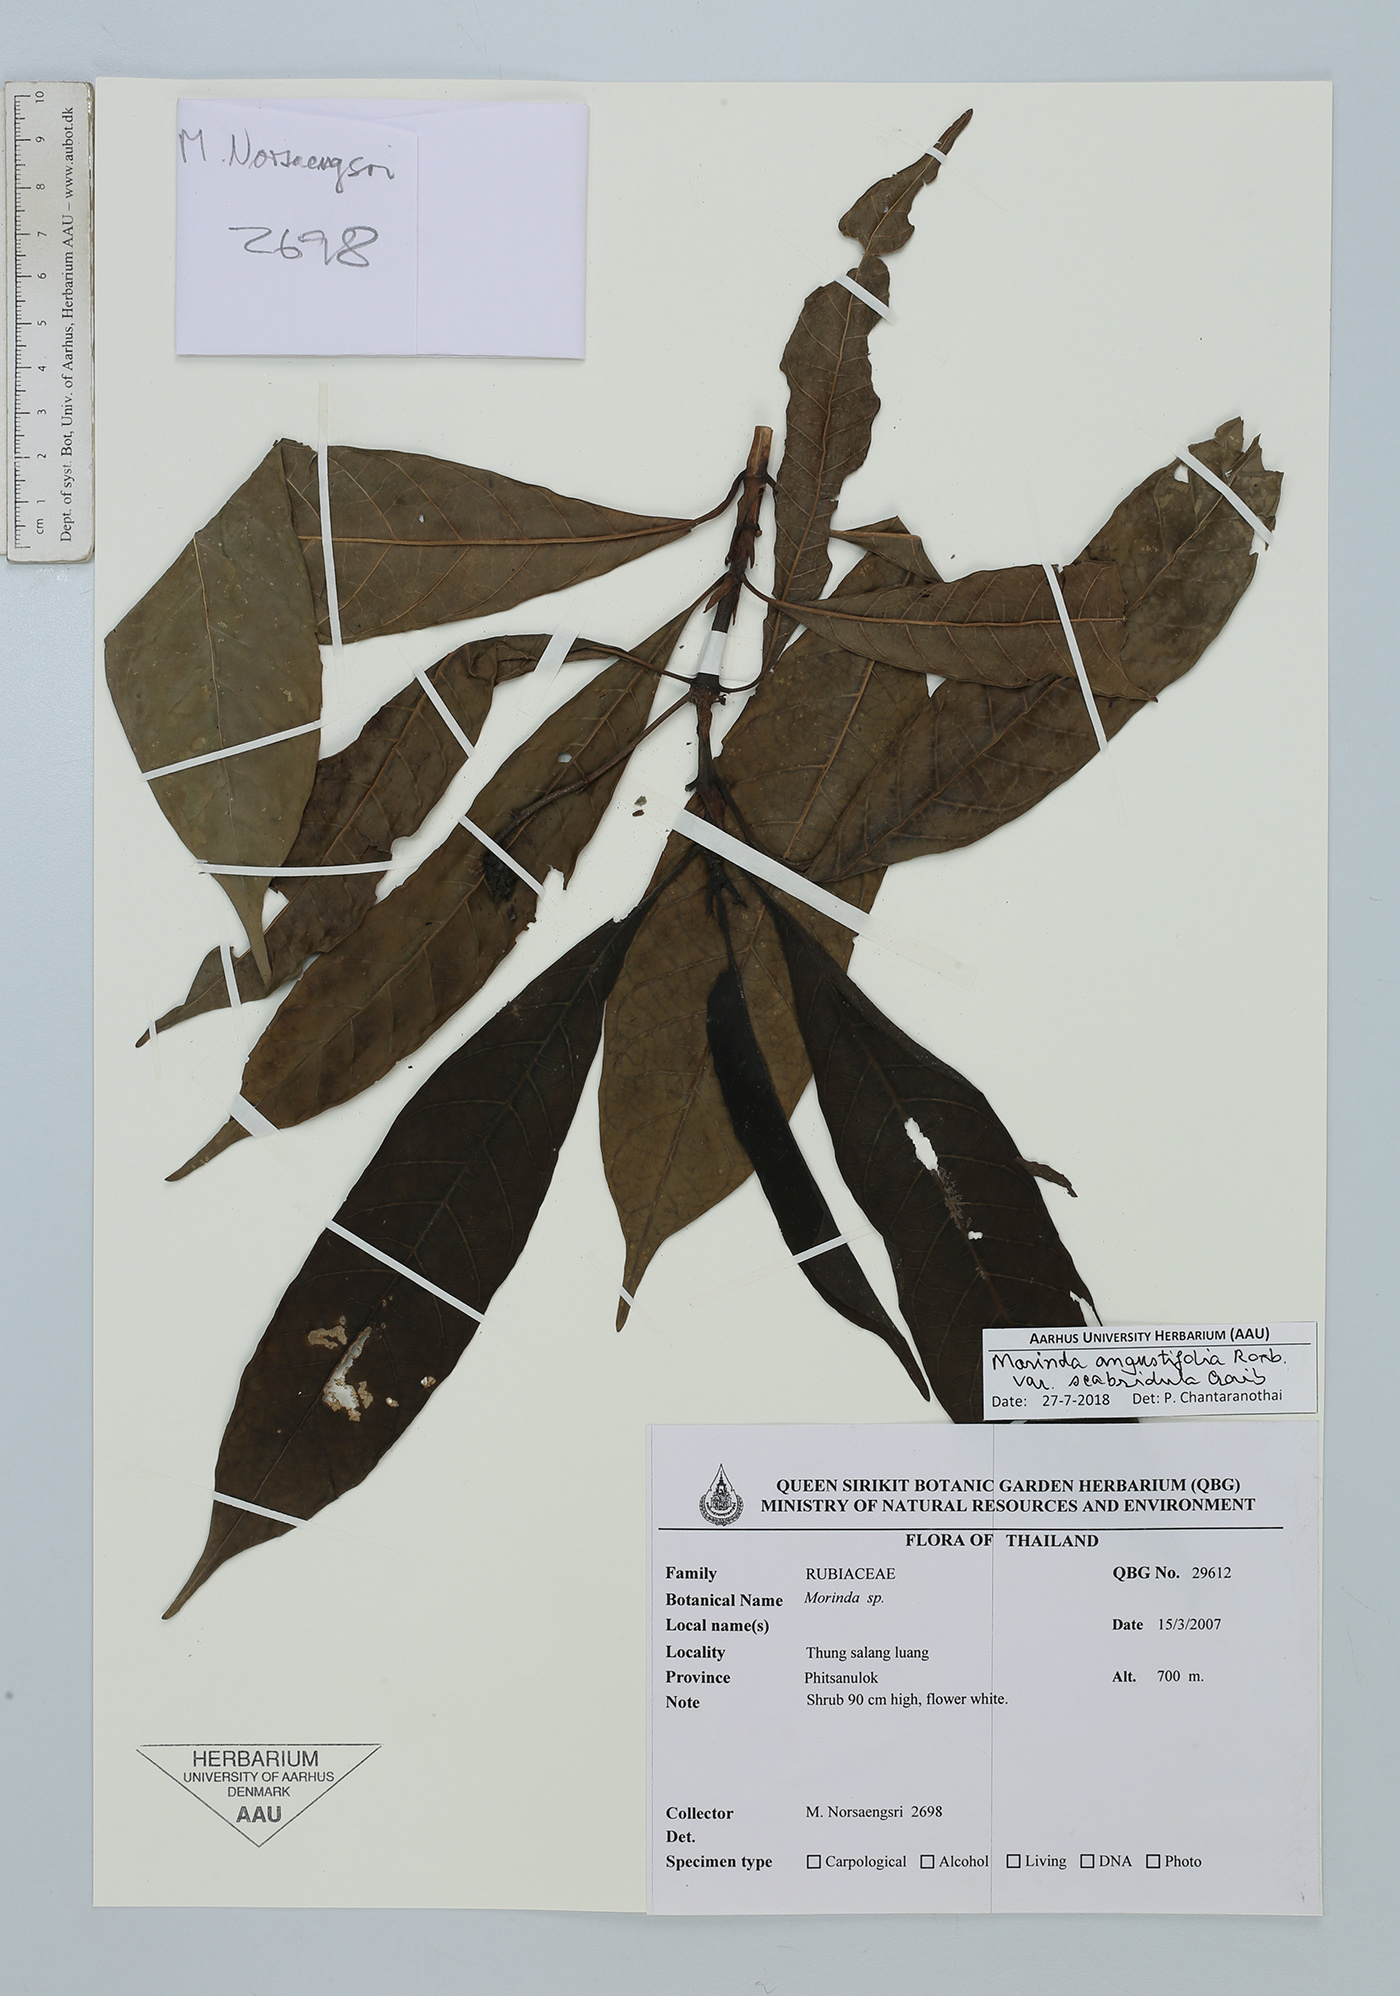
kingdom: Plantae
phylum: Tracheophyta
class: Magnoliopsida
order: Gentianales
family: Rubiaceae
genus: Morinda
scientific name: Morinda angustifolia
